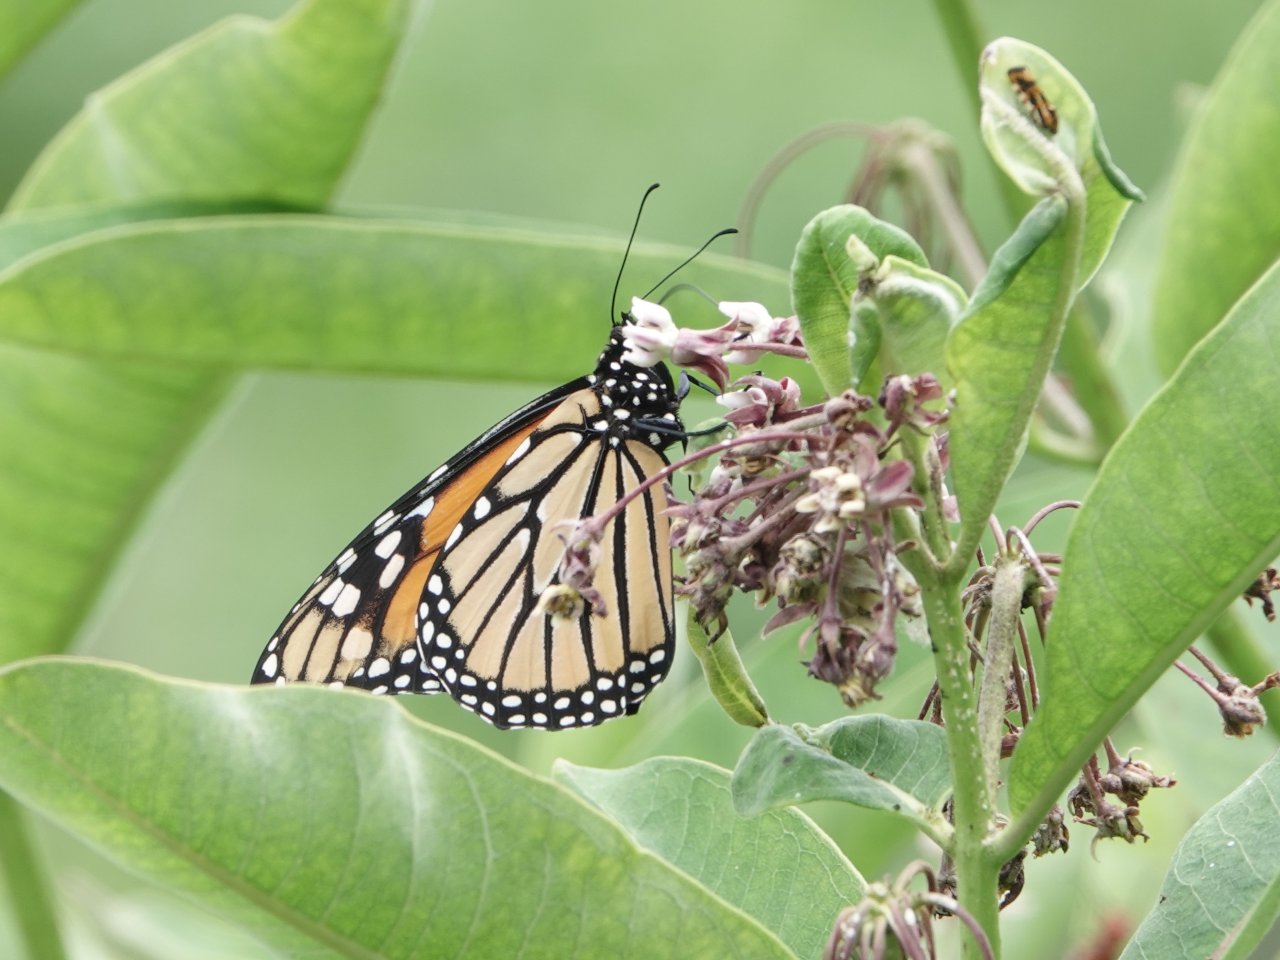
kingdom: Animalia
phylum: Arthropoda
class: Insecta
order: Lepidoptera
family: Nymphalidae
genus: Danaus
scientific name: Danaus plexippus
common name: Monarch
